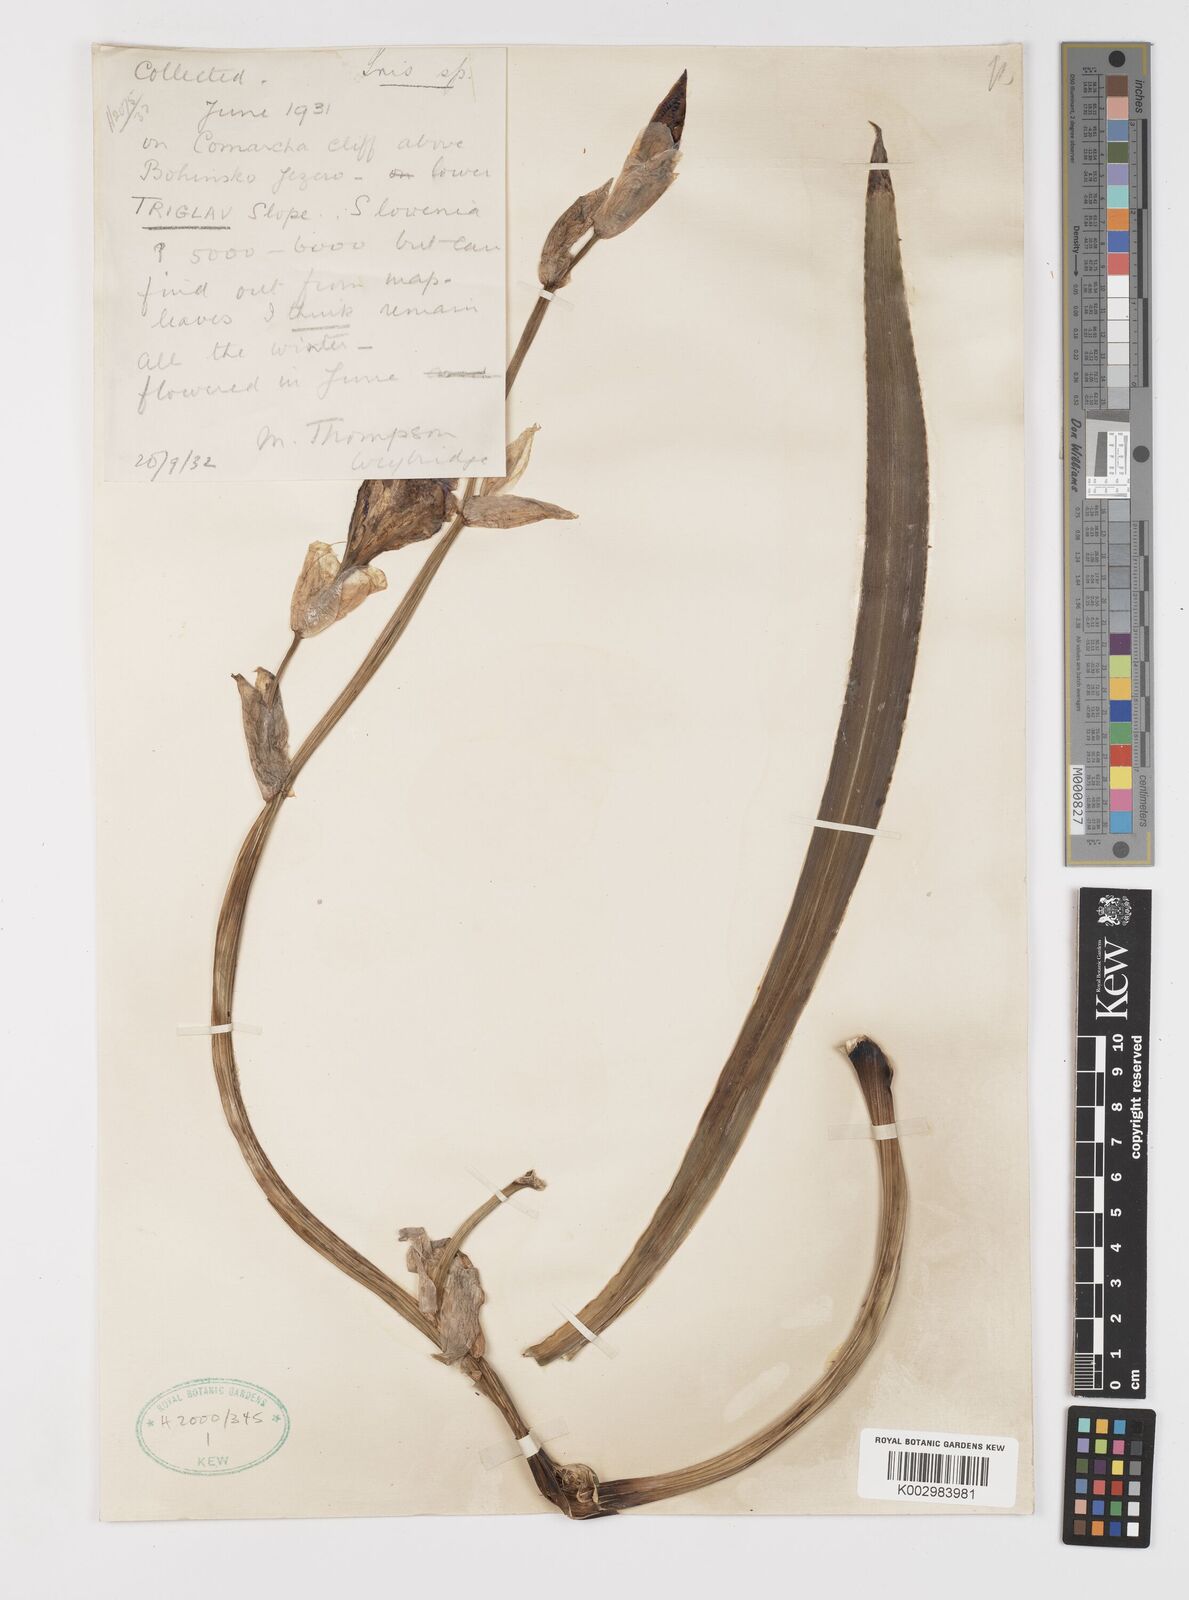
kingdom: Plantae
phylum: Tracheophyta
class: Liliopsida
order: Asparagales
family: Iridaceae
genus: Iris
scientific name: Iris halophila
